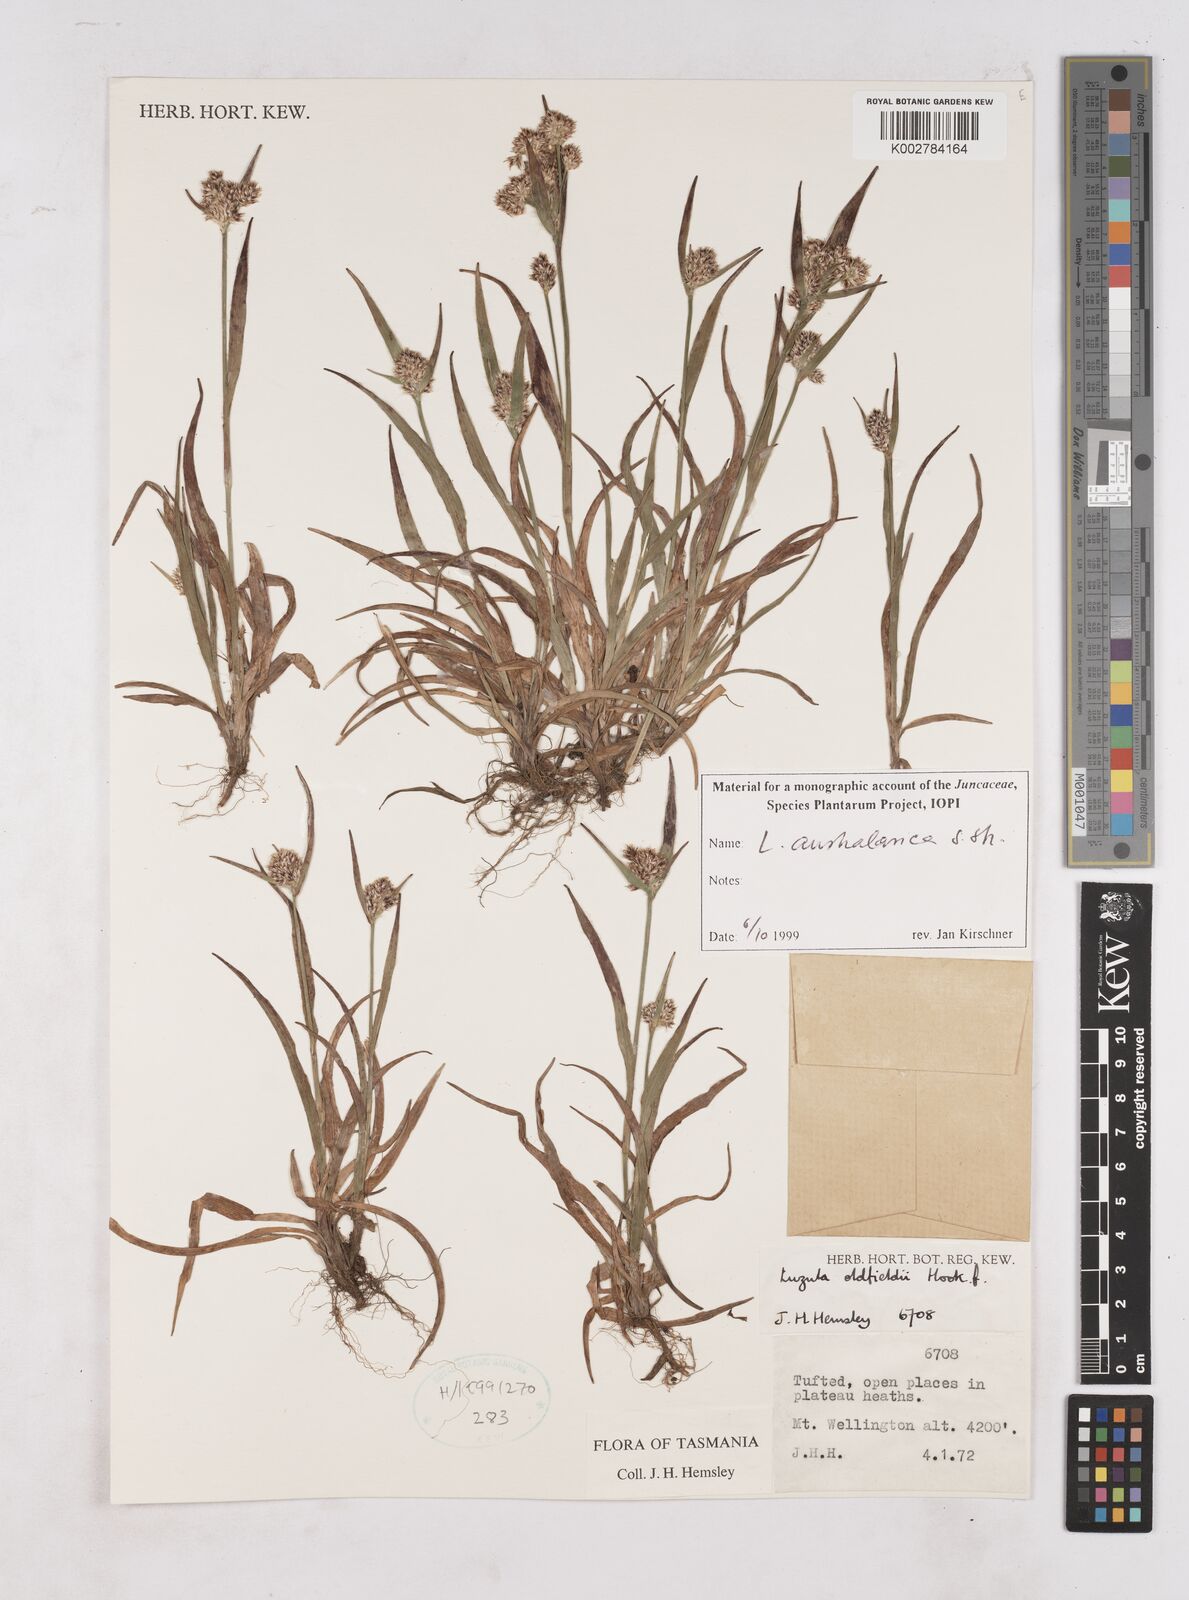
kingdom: Plantae
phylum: Tracheophyta
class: Liliopsida
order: Poales
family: Juncaceae
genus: Luzula
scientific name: Luzula australasica
